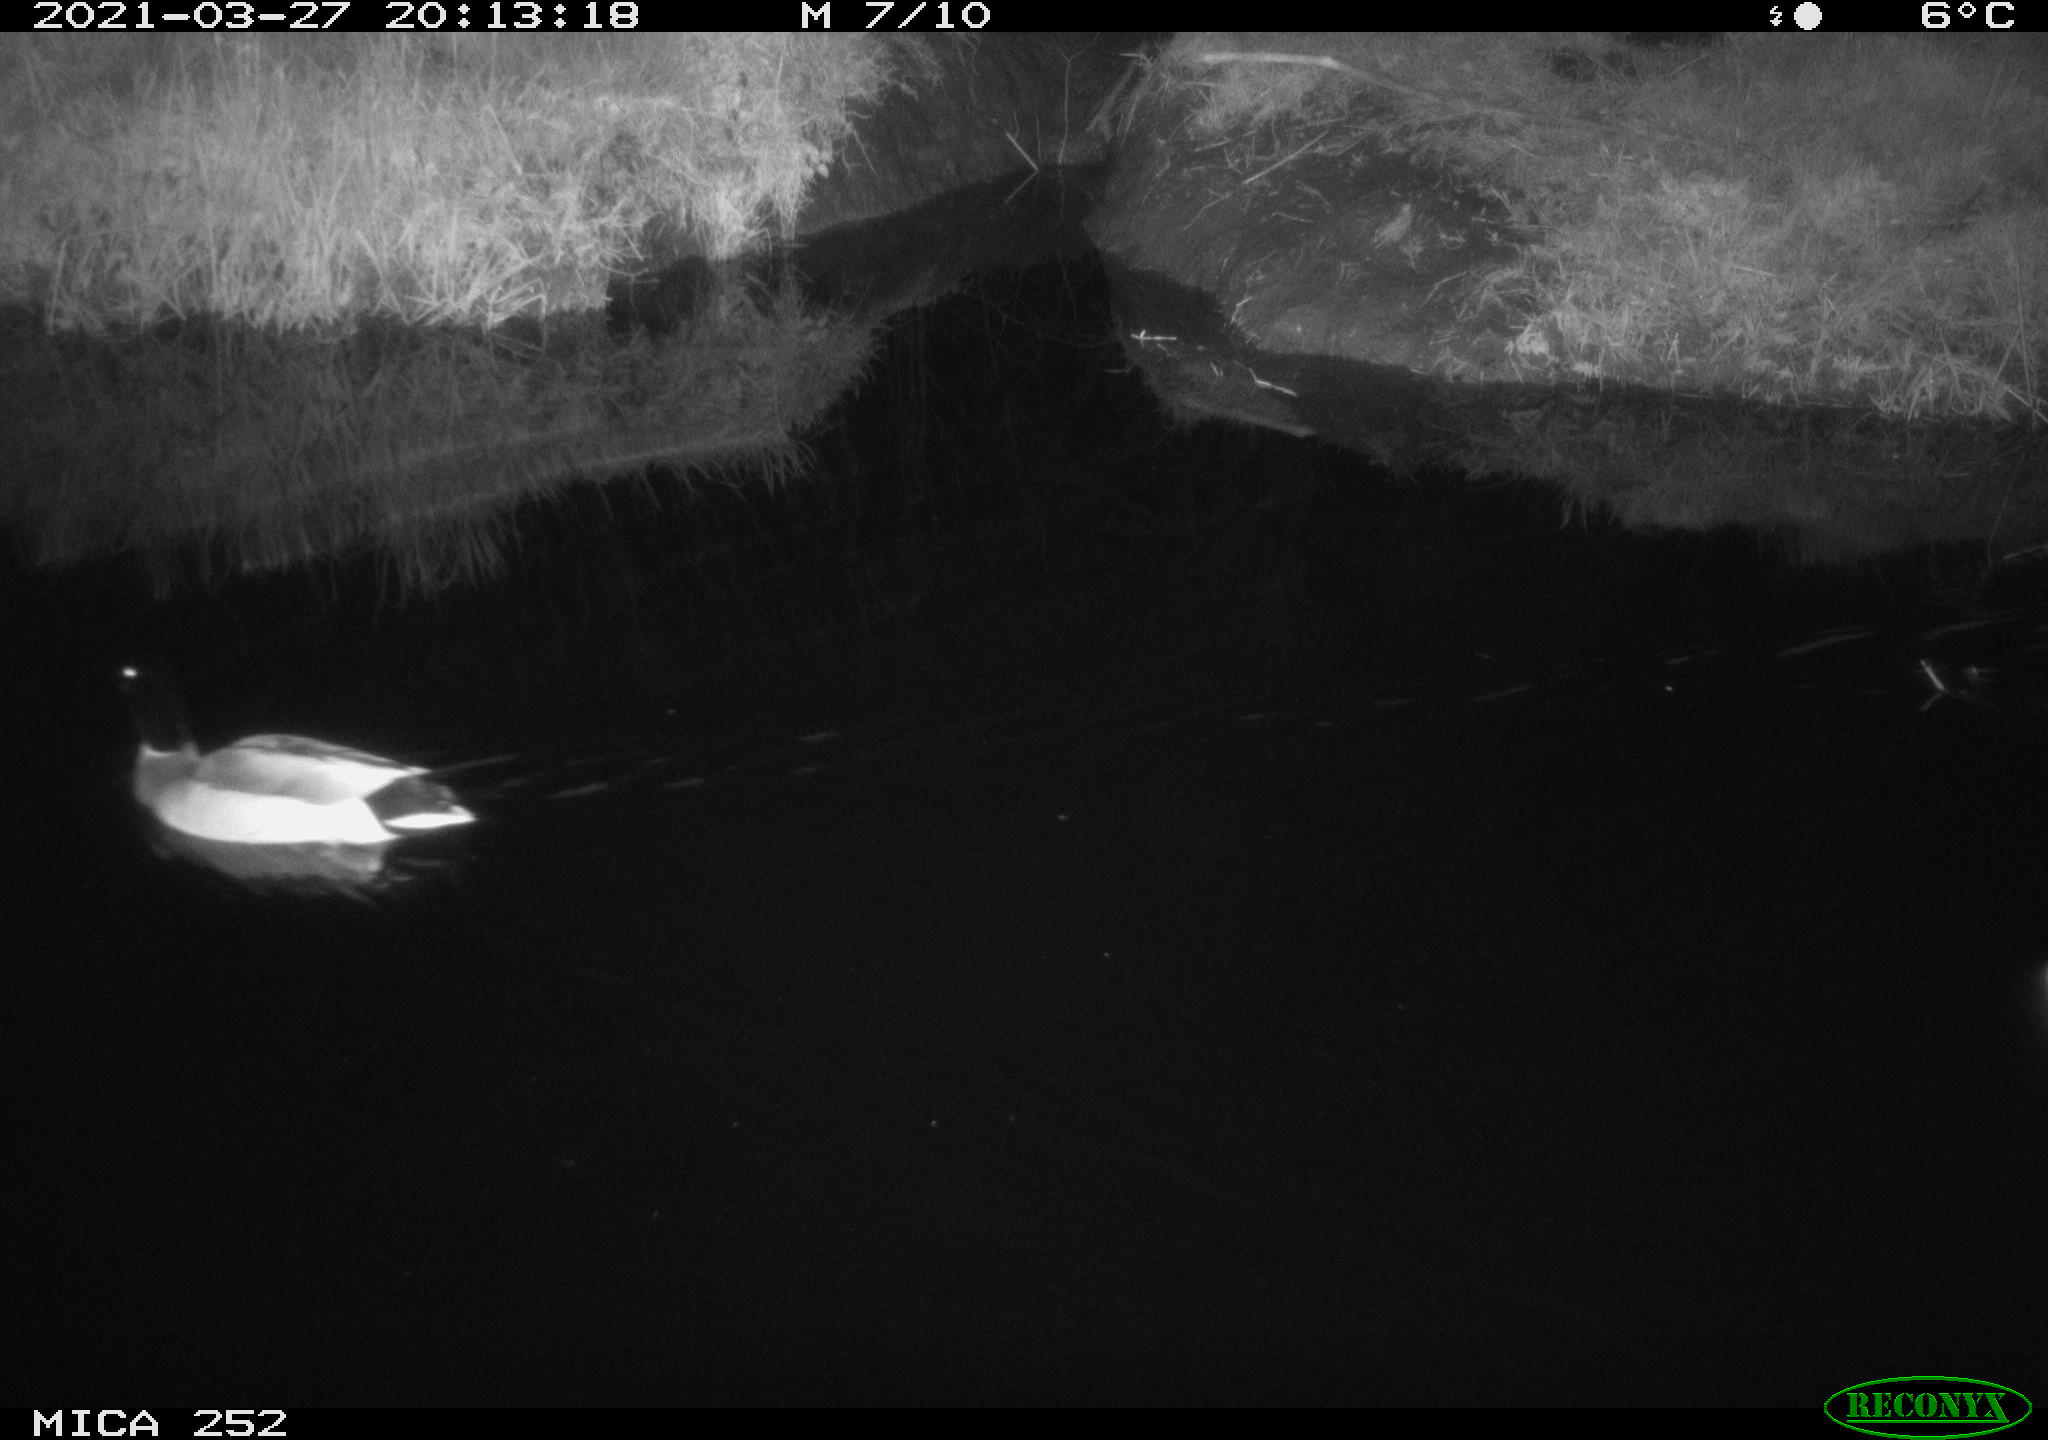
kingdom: Animalia
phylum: Chordata
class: Aves
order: Anseriformes
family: Anatidae
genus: Anas
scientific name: Anas platyrhynchos
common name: Mallard
